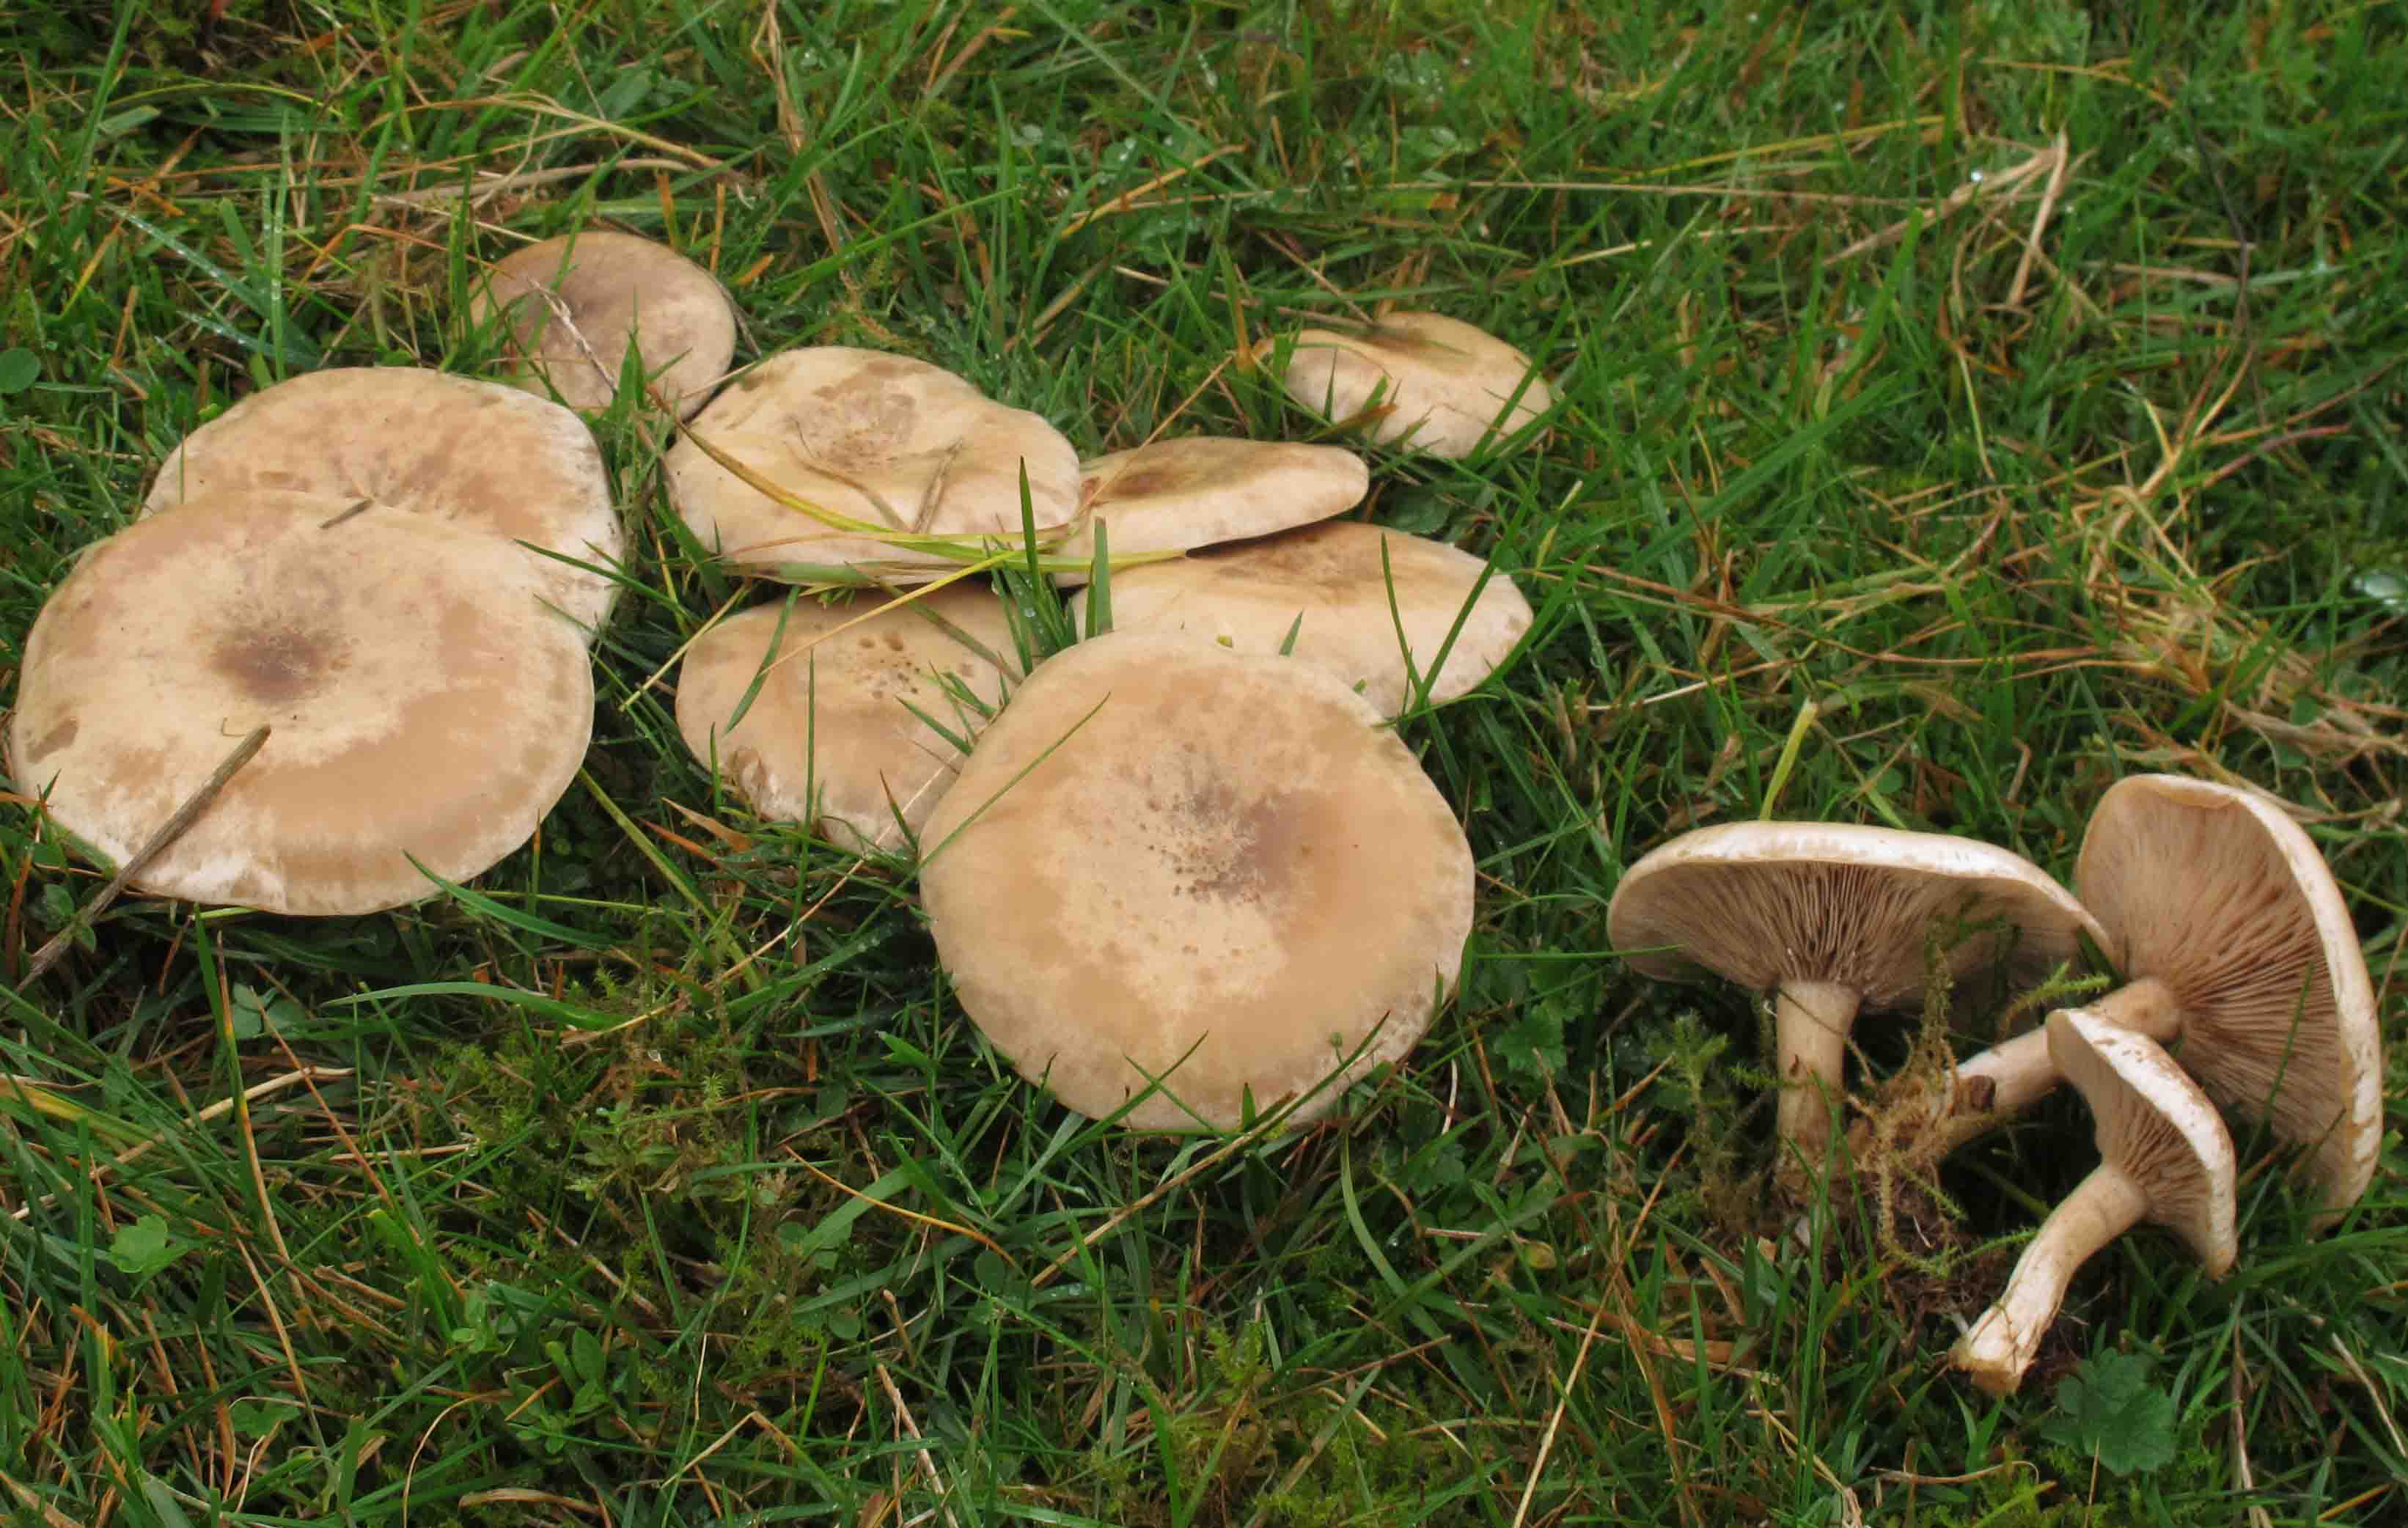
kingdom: Fungi
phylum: Basidiomycota
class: Agaricomycetes
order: Agaricales
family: Tricholomataceae
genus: Lepista
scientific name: Lepista panaeolus
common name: marmoreret hekseringshat
